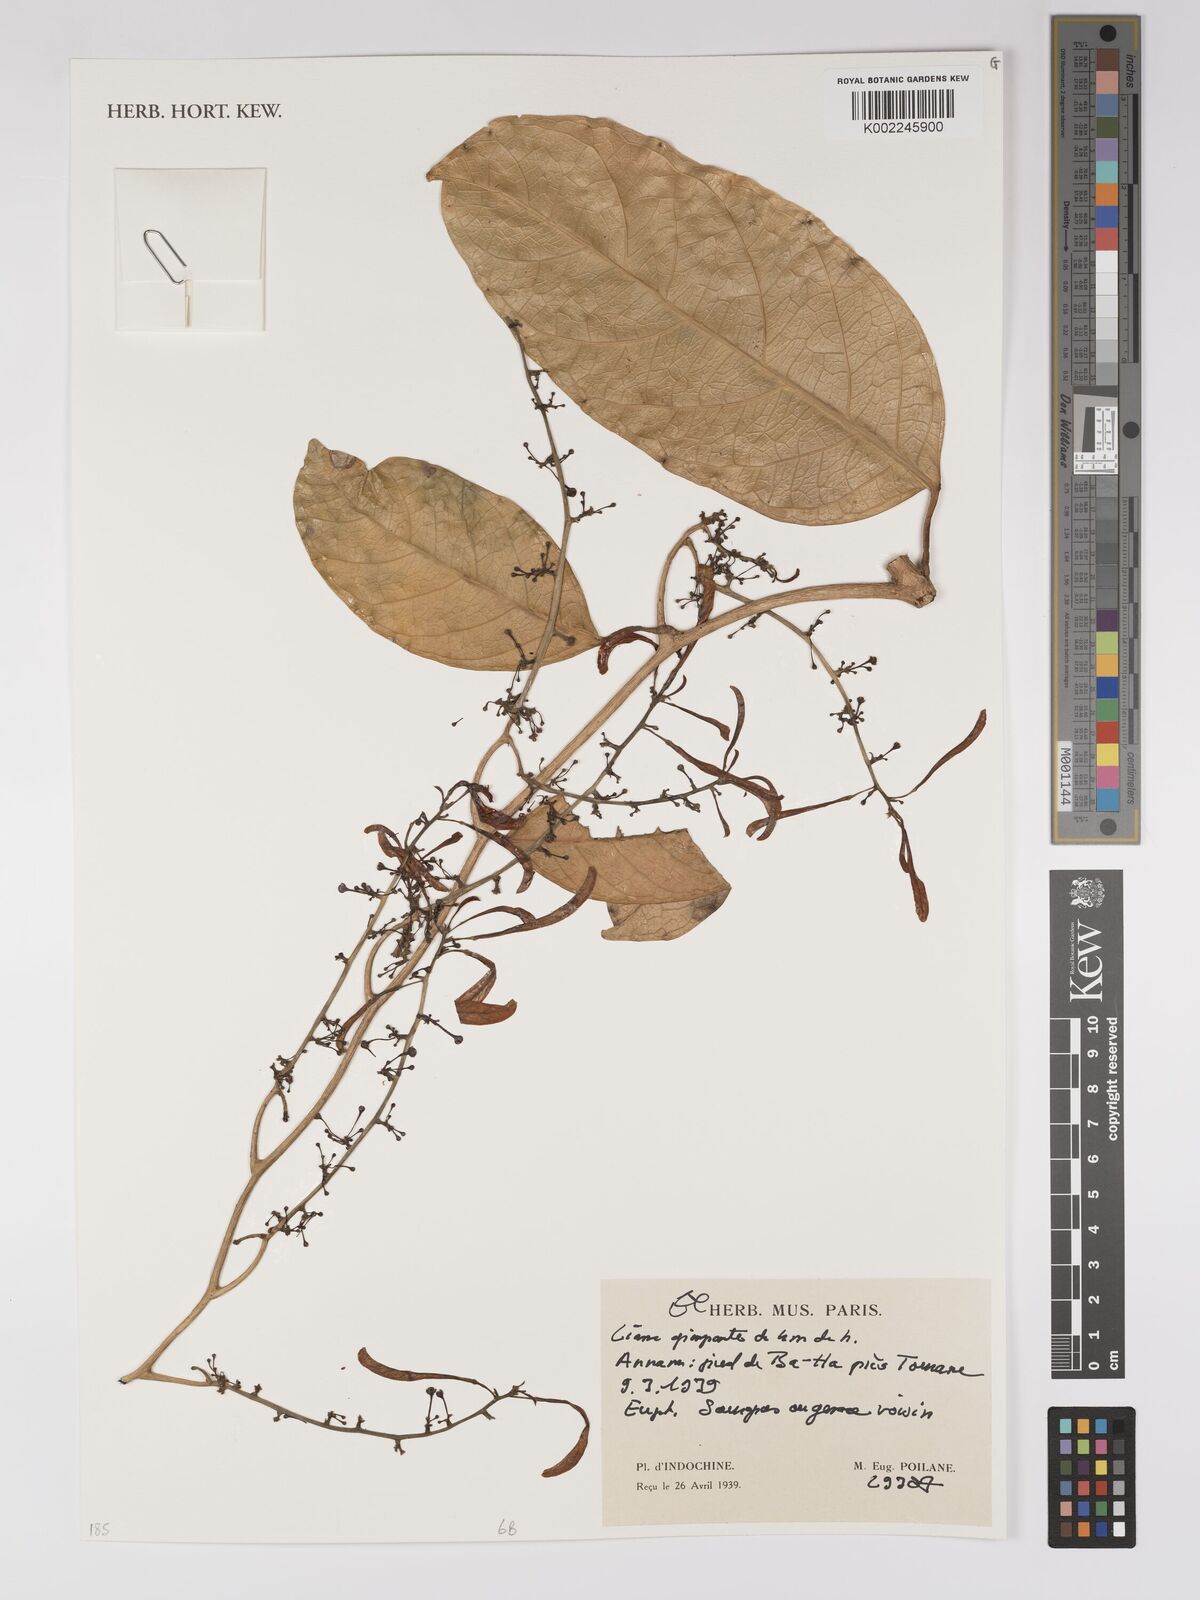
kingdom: Plantae
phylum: Tracheophyta
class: Magnoliopsida
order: Malpighiales
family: Euphorbiaceae
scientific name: Euphorbiaceae
